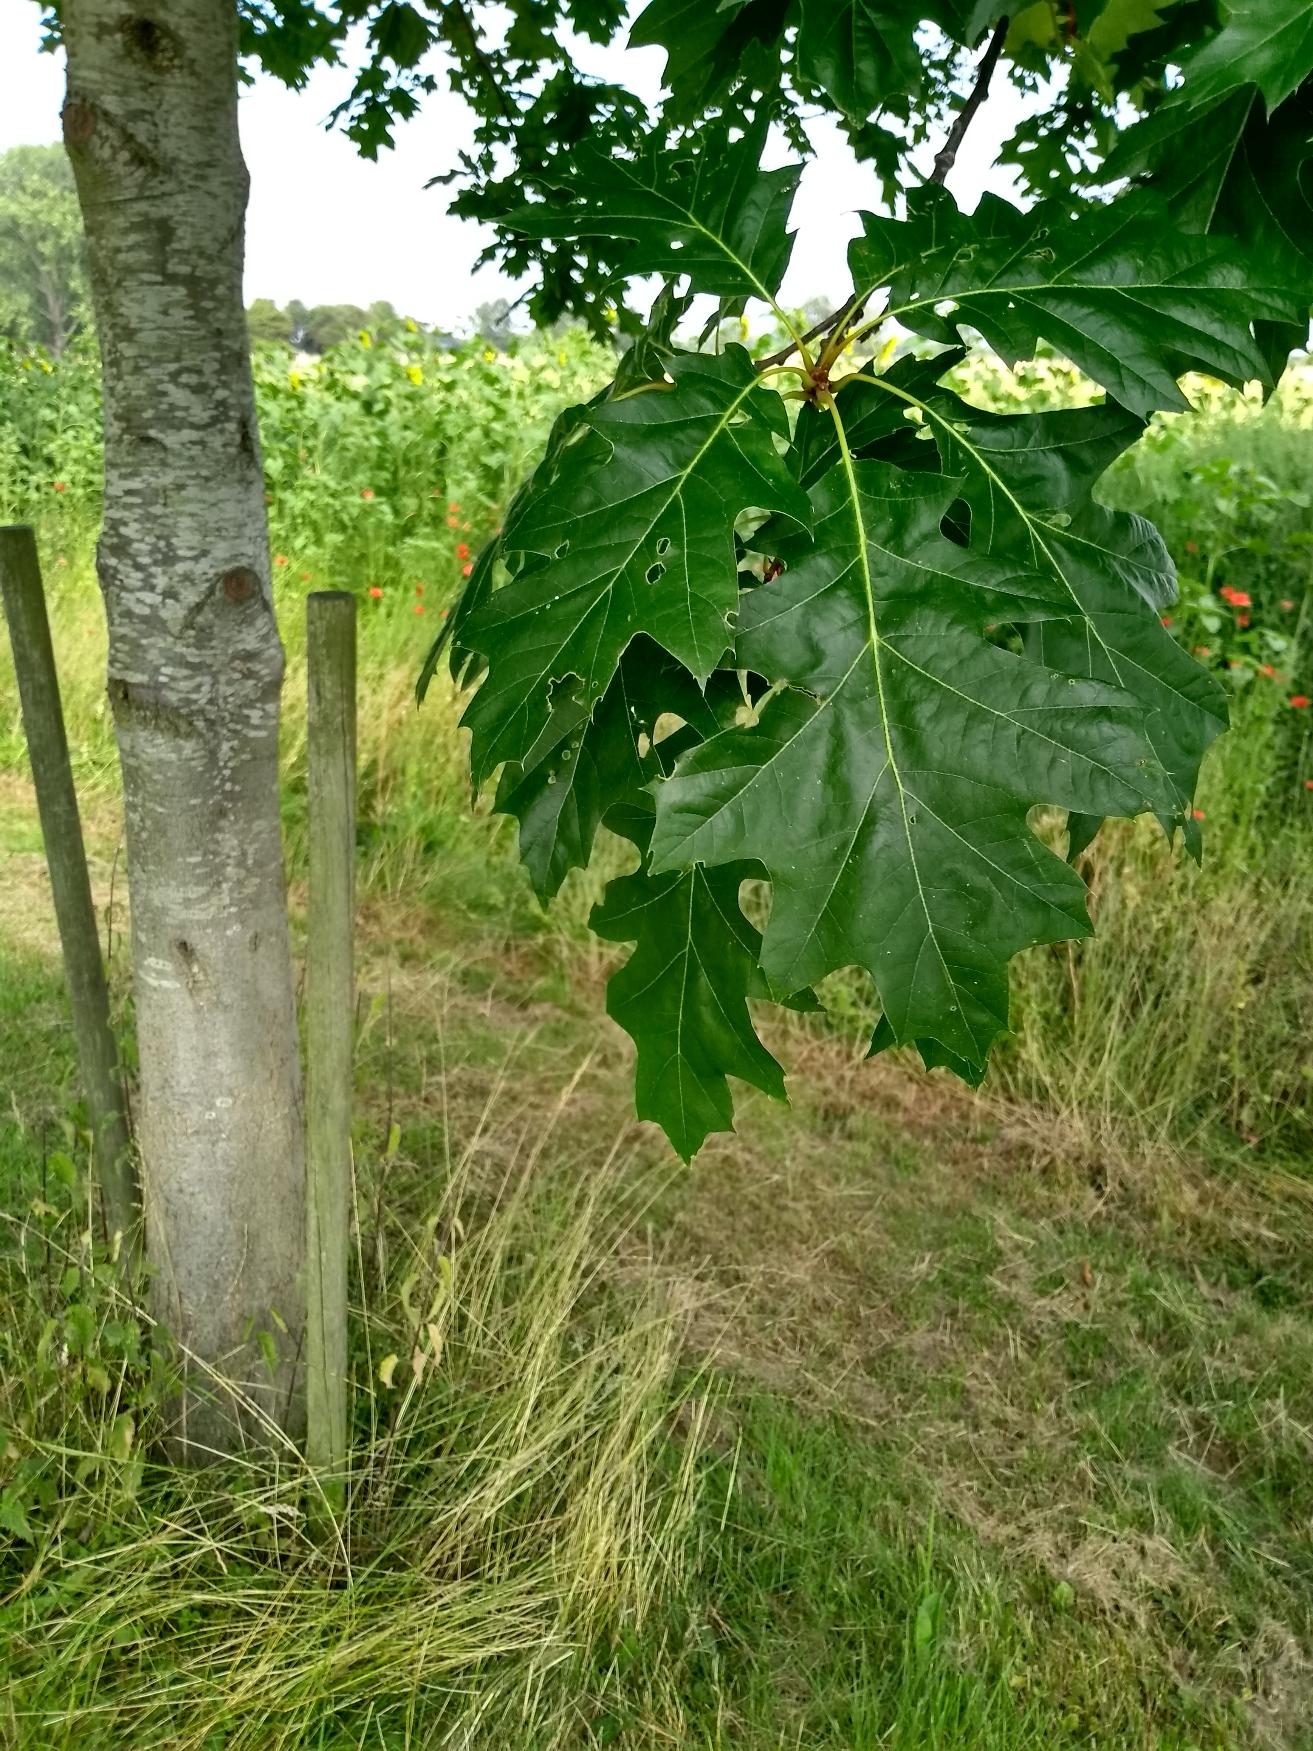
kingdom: Plantae
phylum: Tracheophyta
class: Magnoliopsida
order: Fagales
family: Fagaceae
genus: Quercus
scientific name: Quercus rubra
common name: Rød-eg
